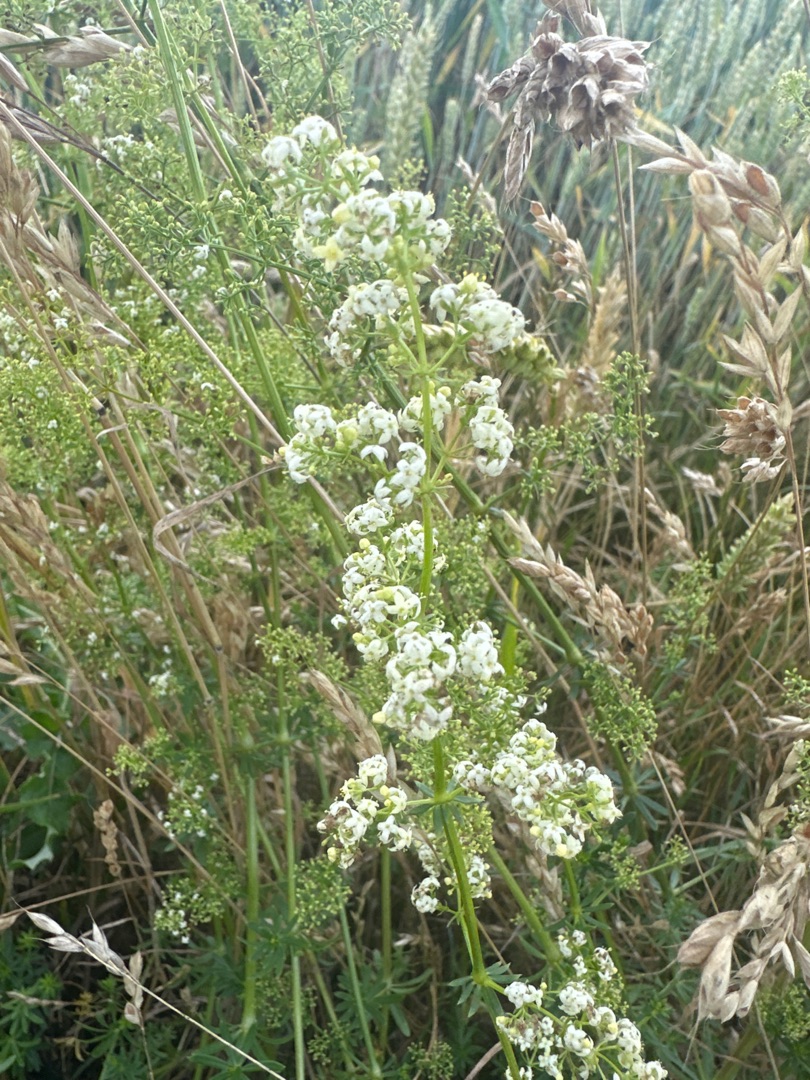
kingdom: Plantae
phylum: Tracheophyta
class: Magnoliopsida
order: Gentianales
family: Rubiaceae
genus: Galium
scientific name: Galium mollugo
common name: Hvid snerre
